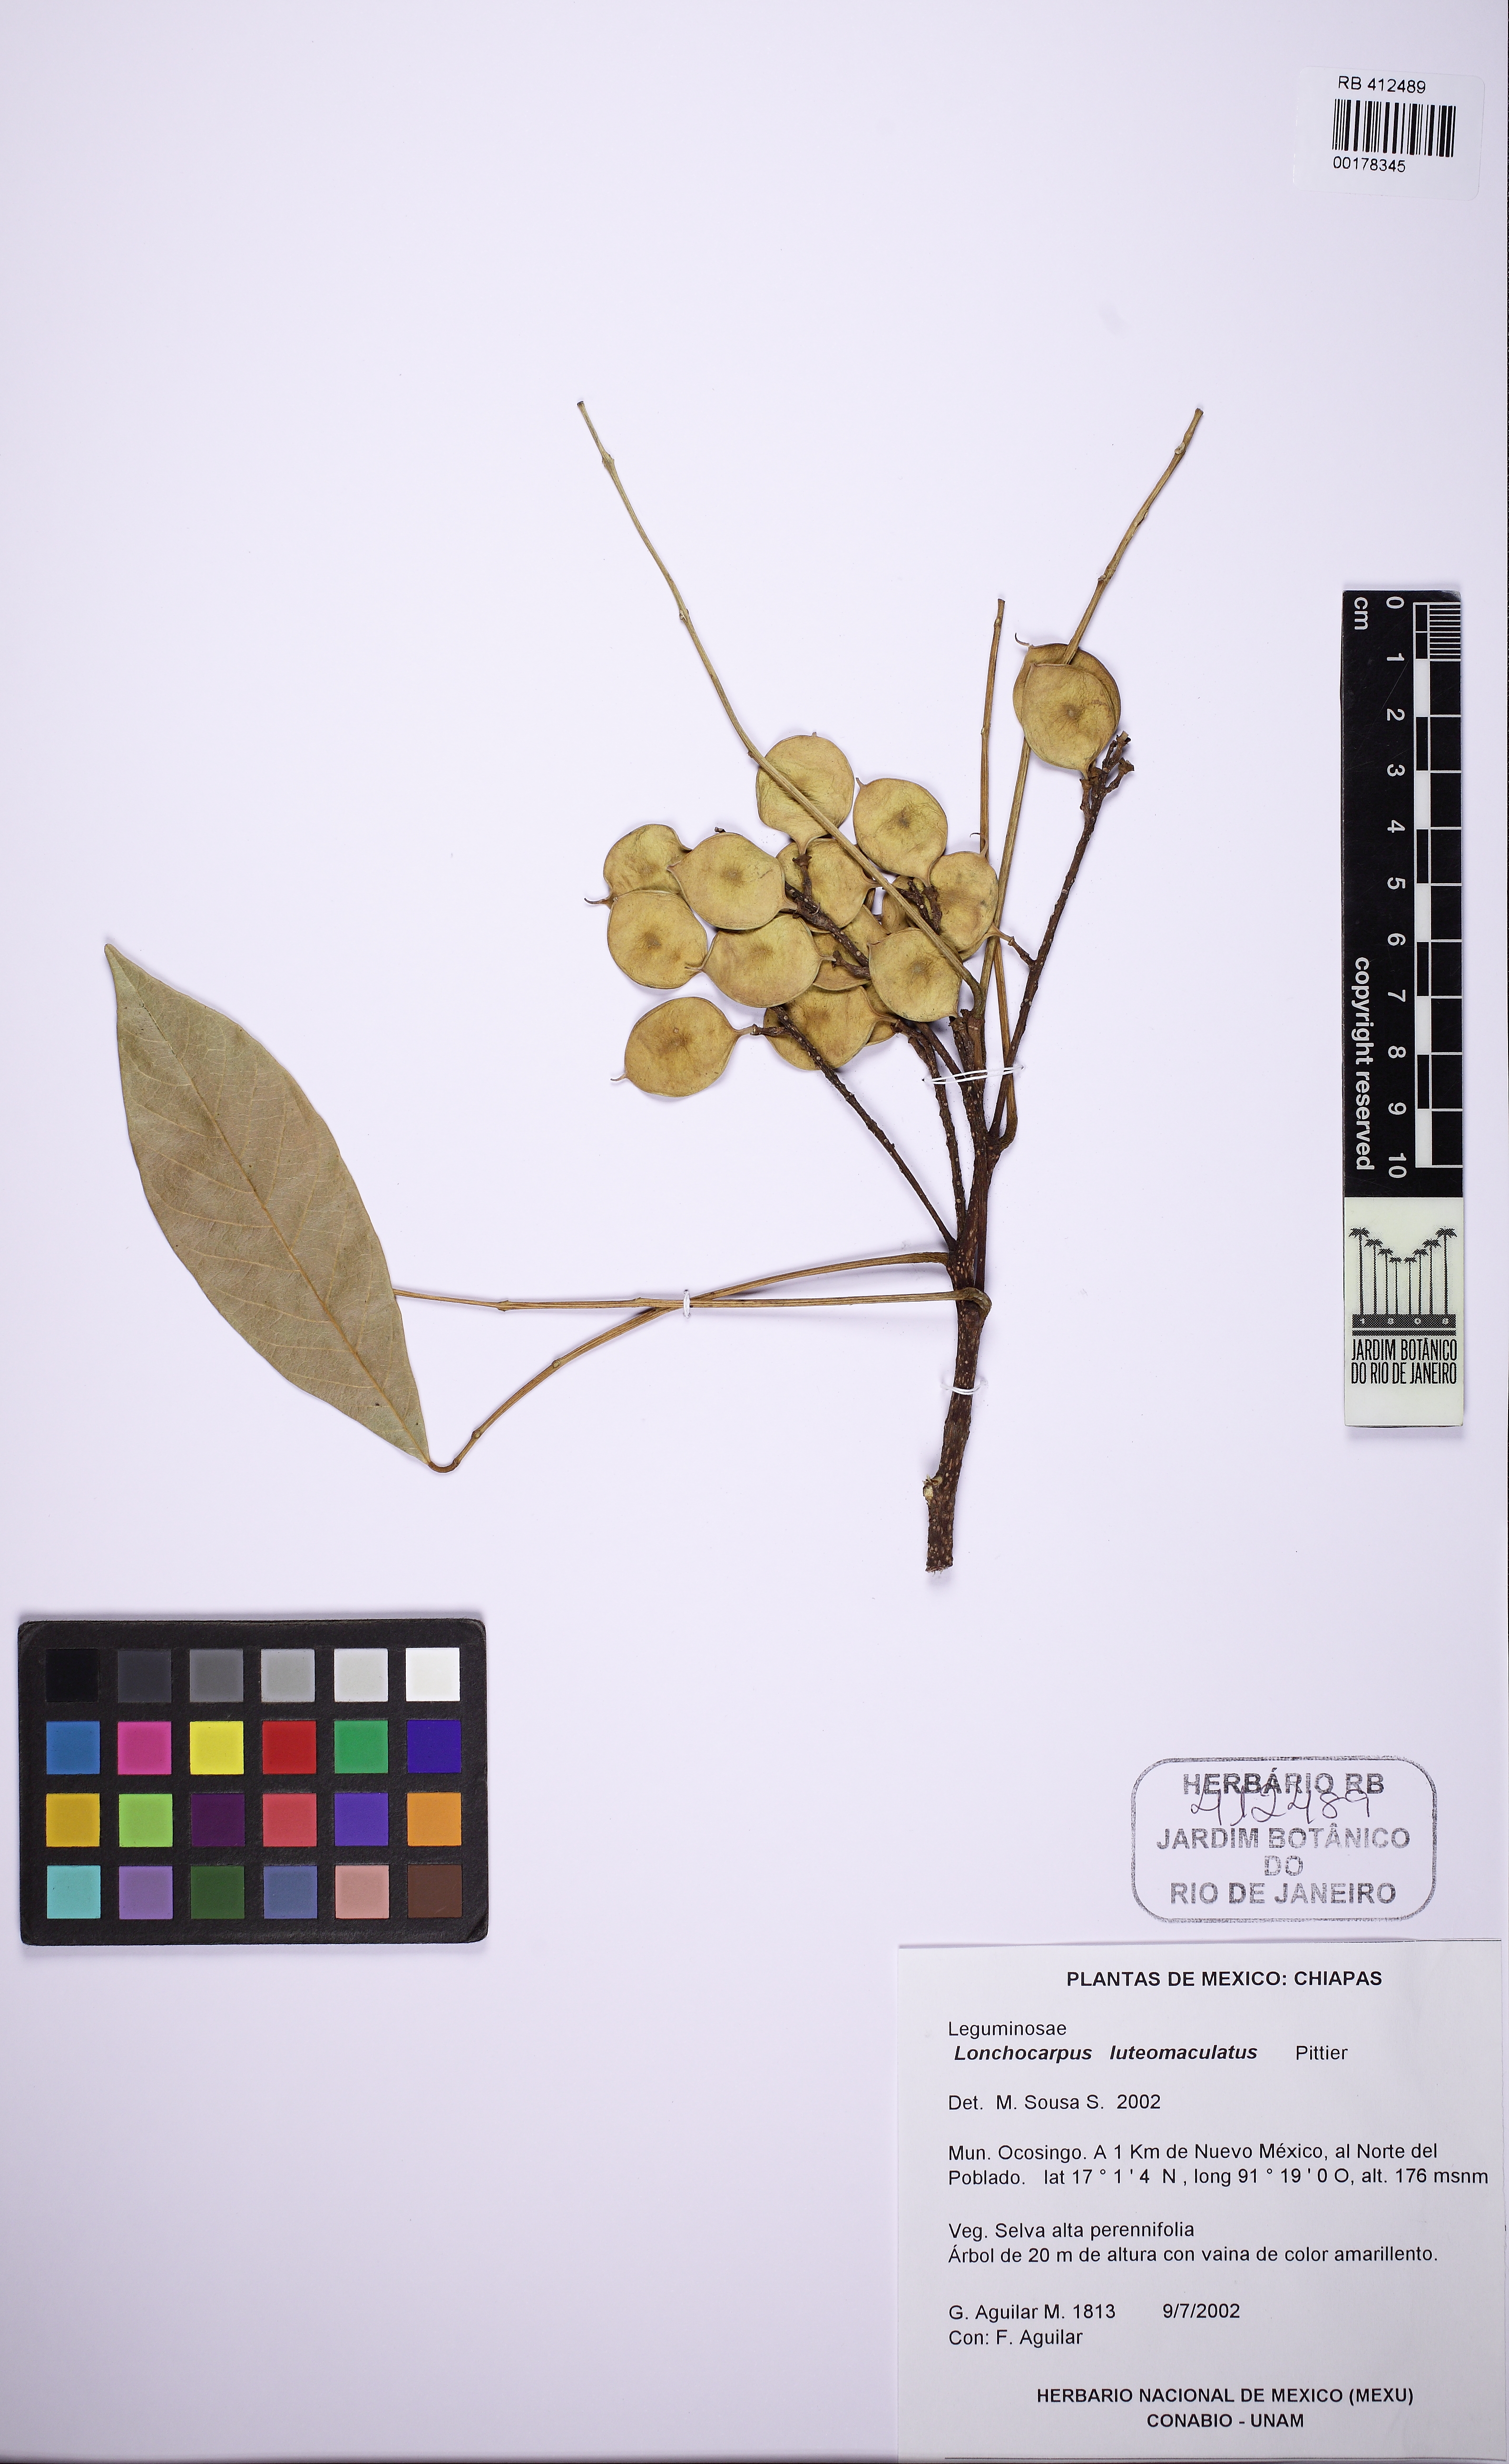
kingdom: Plantae
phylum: Tracheophyta
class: Magnoliopsida
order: Fabales
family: Fabaceae
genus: Lonchocarpus
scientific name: Lonchocarpus luteomaculatus
